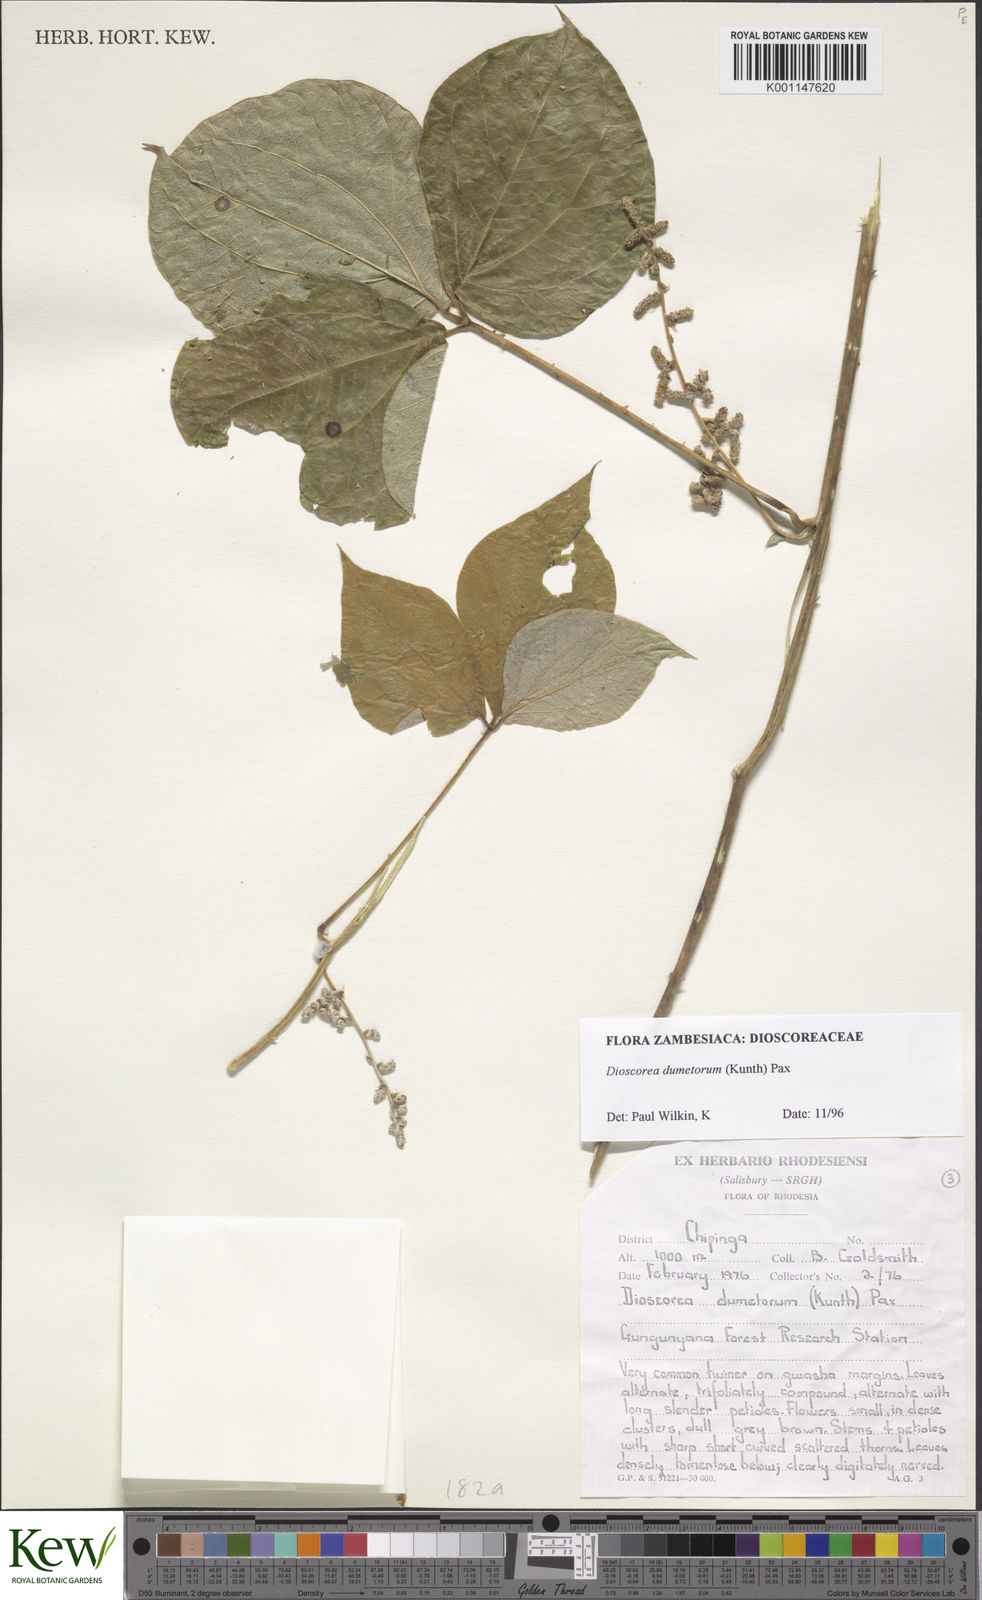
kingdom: Plantae
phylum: Tracheophyta
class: Liliopsida
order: Dioscoreales
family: Dioscoreaceae
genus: Dioscorea
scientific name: Dioscorea dumetorum
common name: African bitter yam
